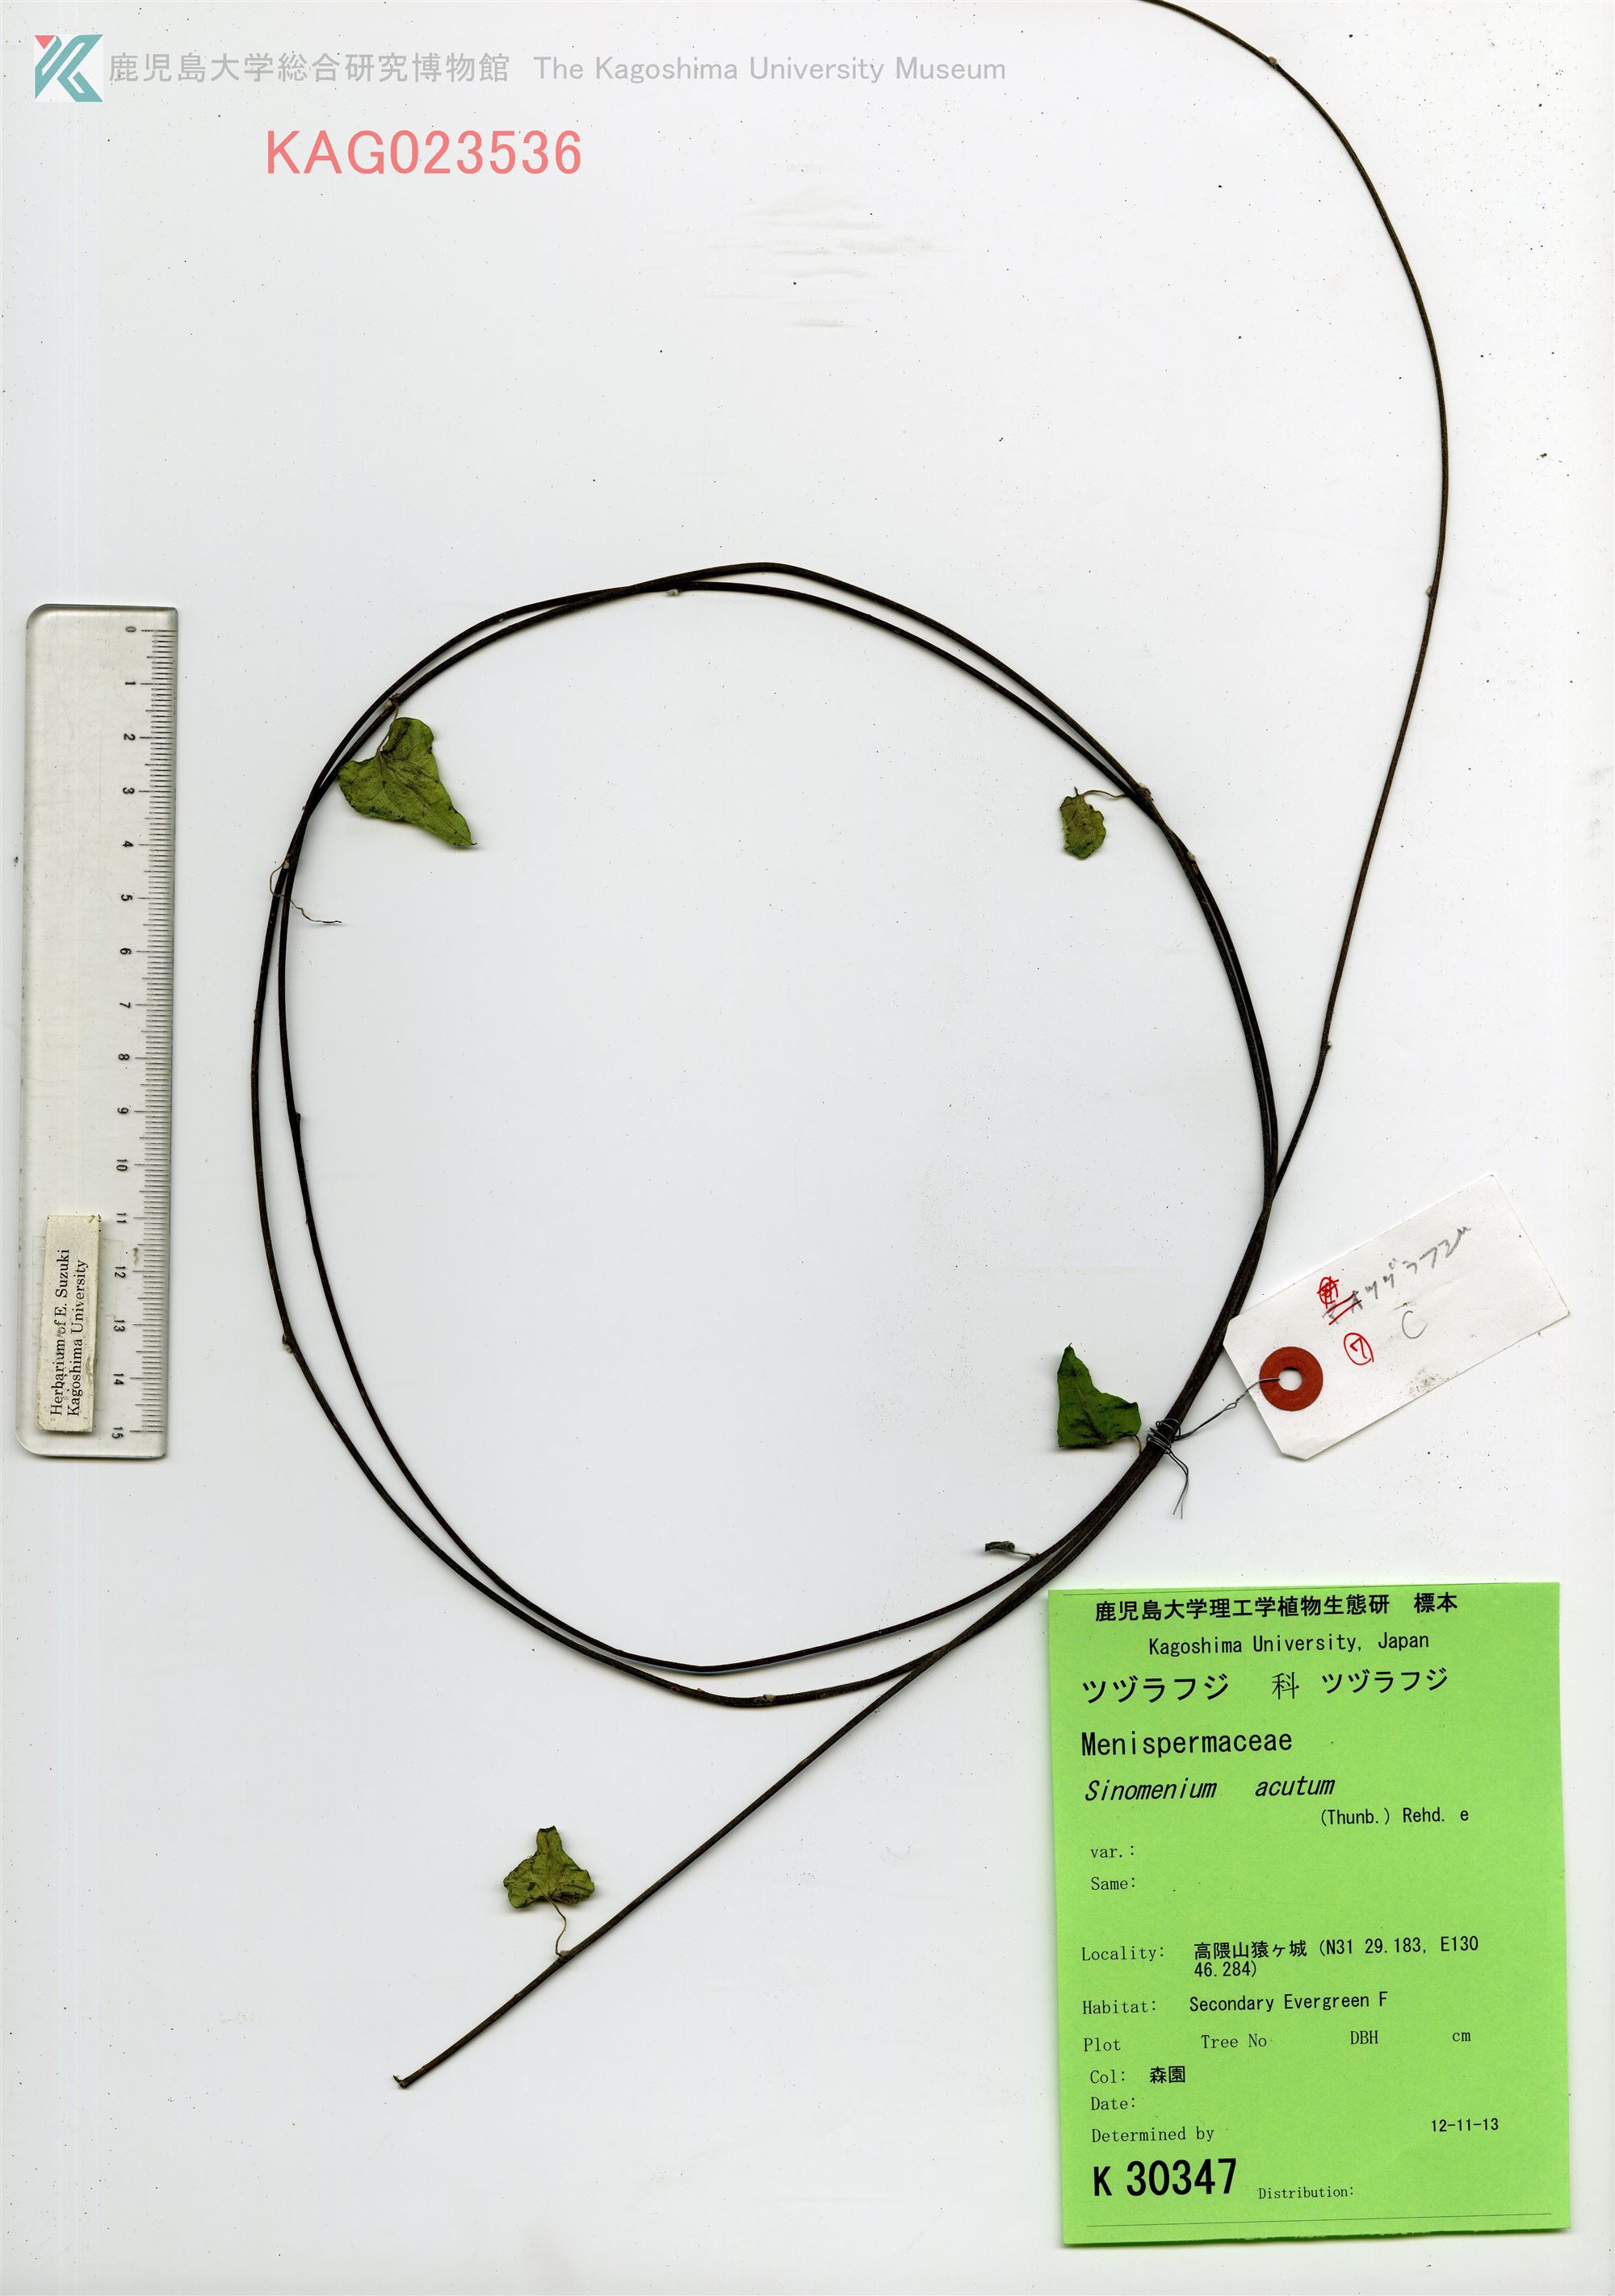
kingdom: Plantae
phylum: Tracheophyta
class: Magnoliopsida
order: Ranunculales
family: Menispermaceae
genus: Cocculus
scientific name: Cocculus orbiculatus
